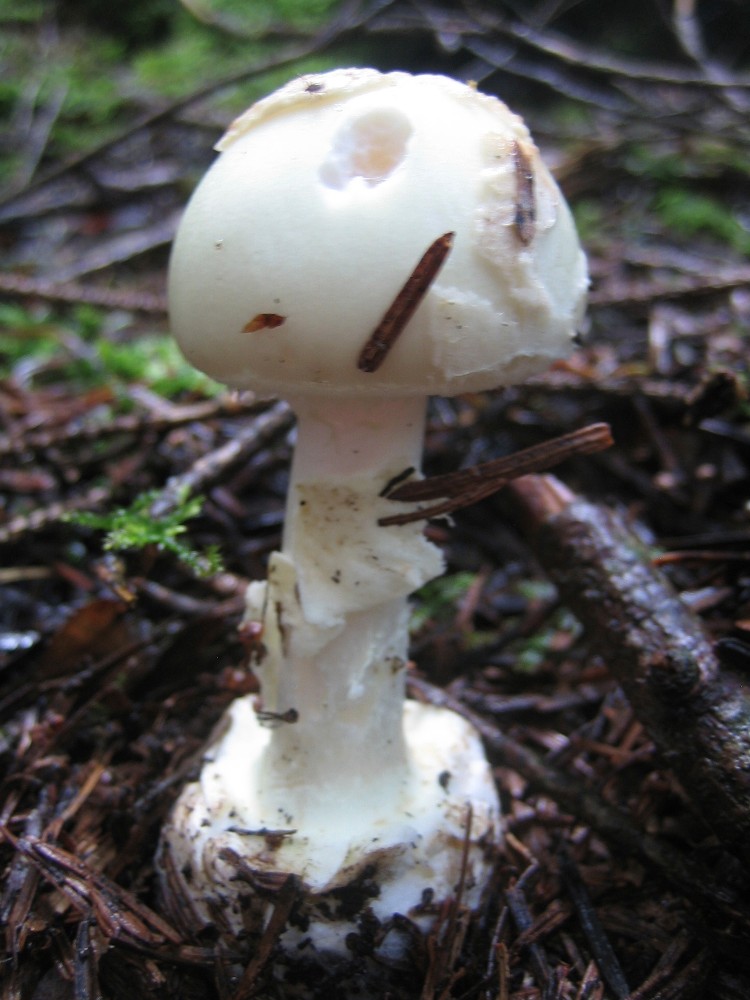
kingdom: Fungi
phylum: Basidiomycota
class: Agaricomycetes
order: Agaricales
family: Amanitaceae
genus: Amanita
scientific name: Amanita citrina
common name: kugleknoldet fluesvamp
